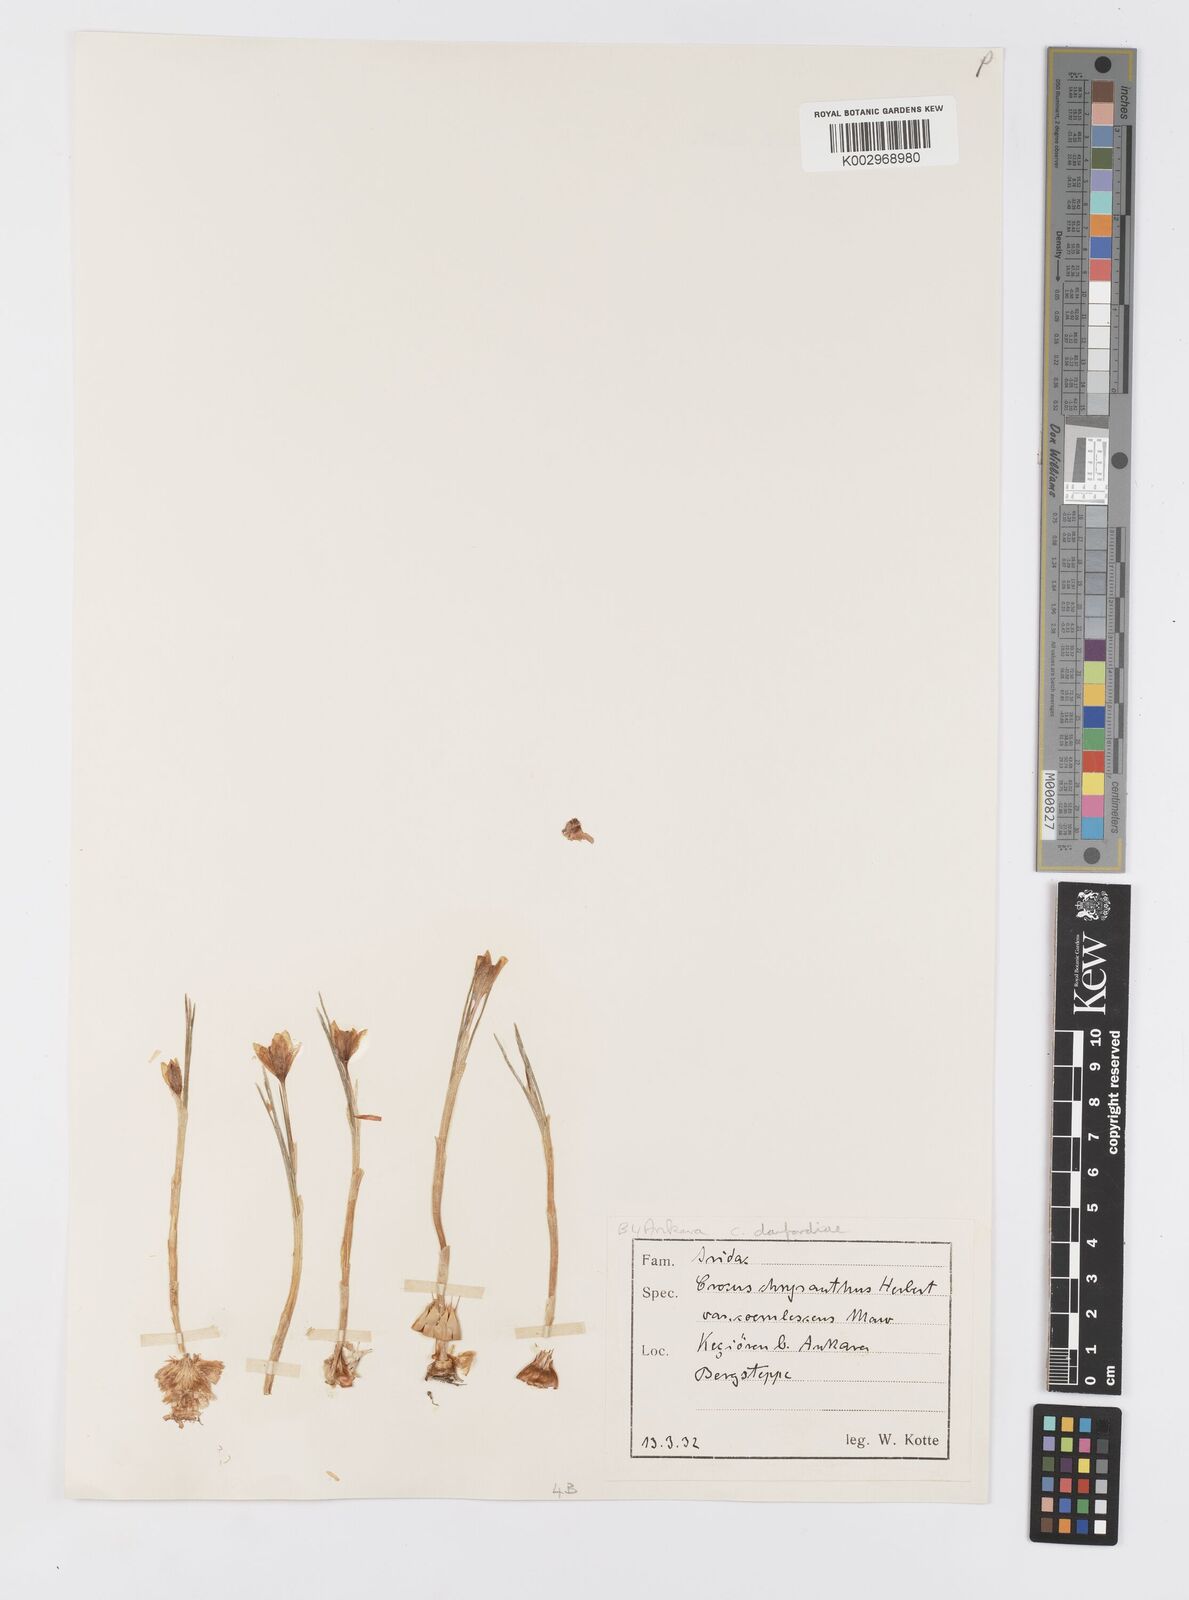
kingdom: Plantae
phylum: Tracheophyta
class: Liliopsida
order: Asparagales
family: Iridaceae
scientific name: Iridaceae
